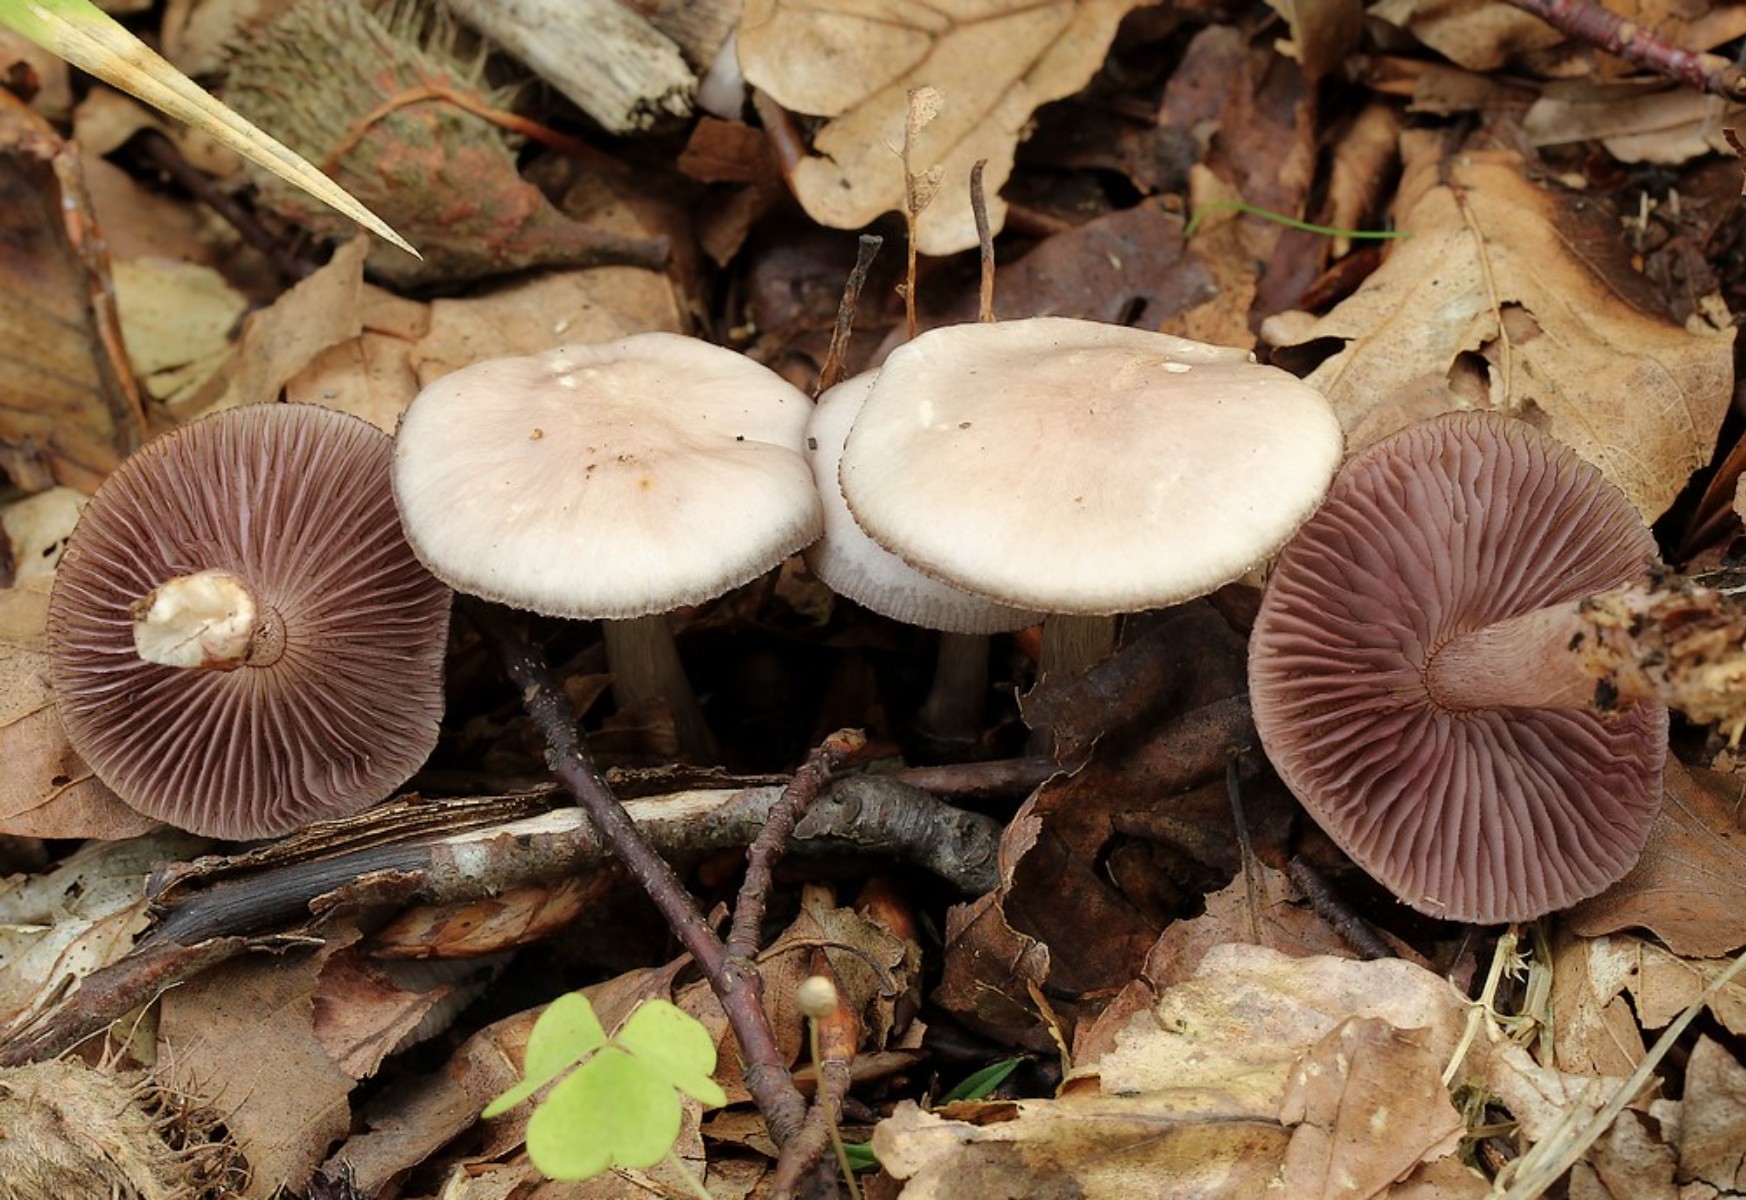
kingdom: Fungi
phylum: Basidiomycota
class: Agaricomycetes
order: Agaricales
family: Mycenaceae
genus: Mycena
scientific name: Mycena pelianthina
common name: mørkbladet huesvamp
